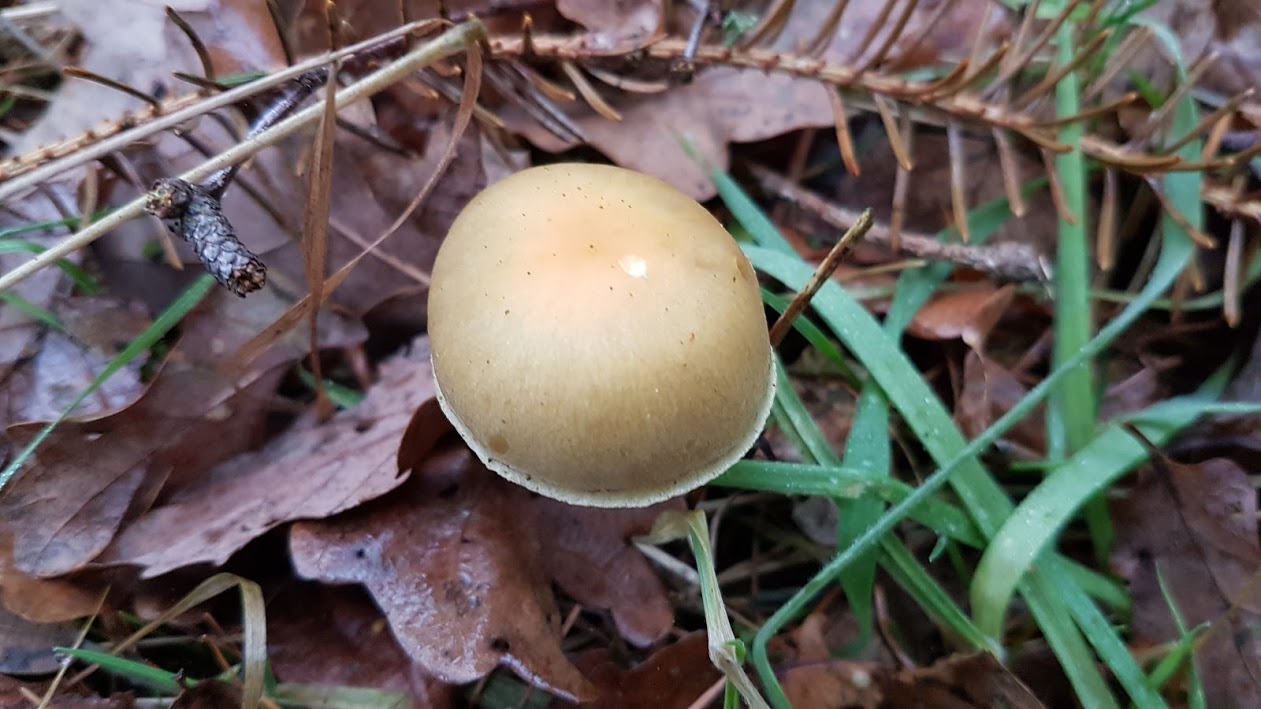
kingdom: Fungi
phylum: Basidiomycota
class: Agaricomycetes
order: Agaricales
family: Strophariaceae
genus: Hypholoma
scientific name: Hypholoma capnoides
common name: gran-svovlhat
